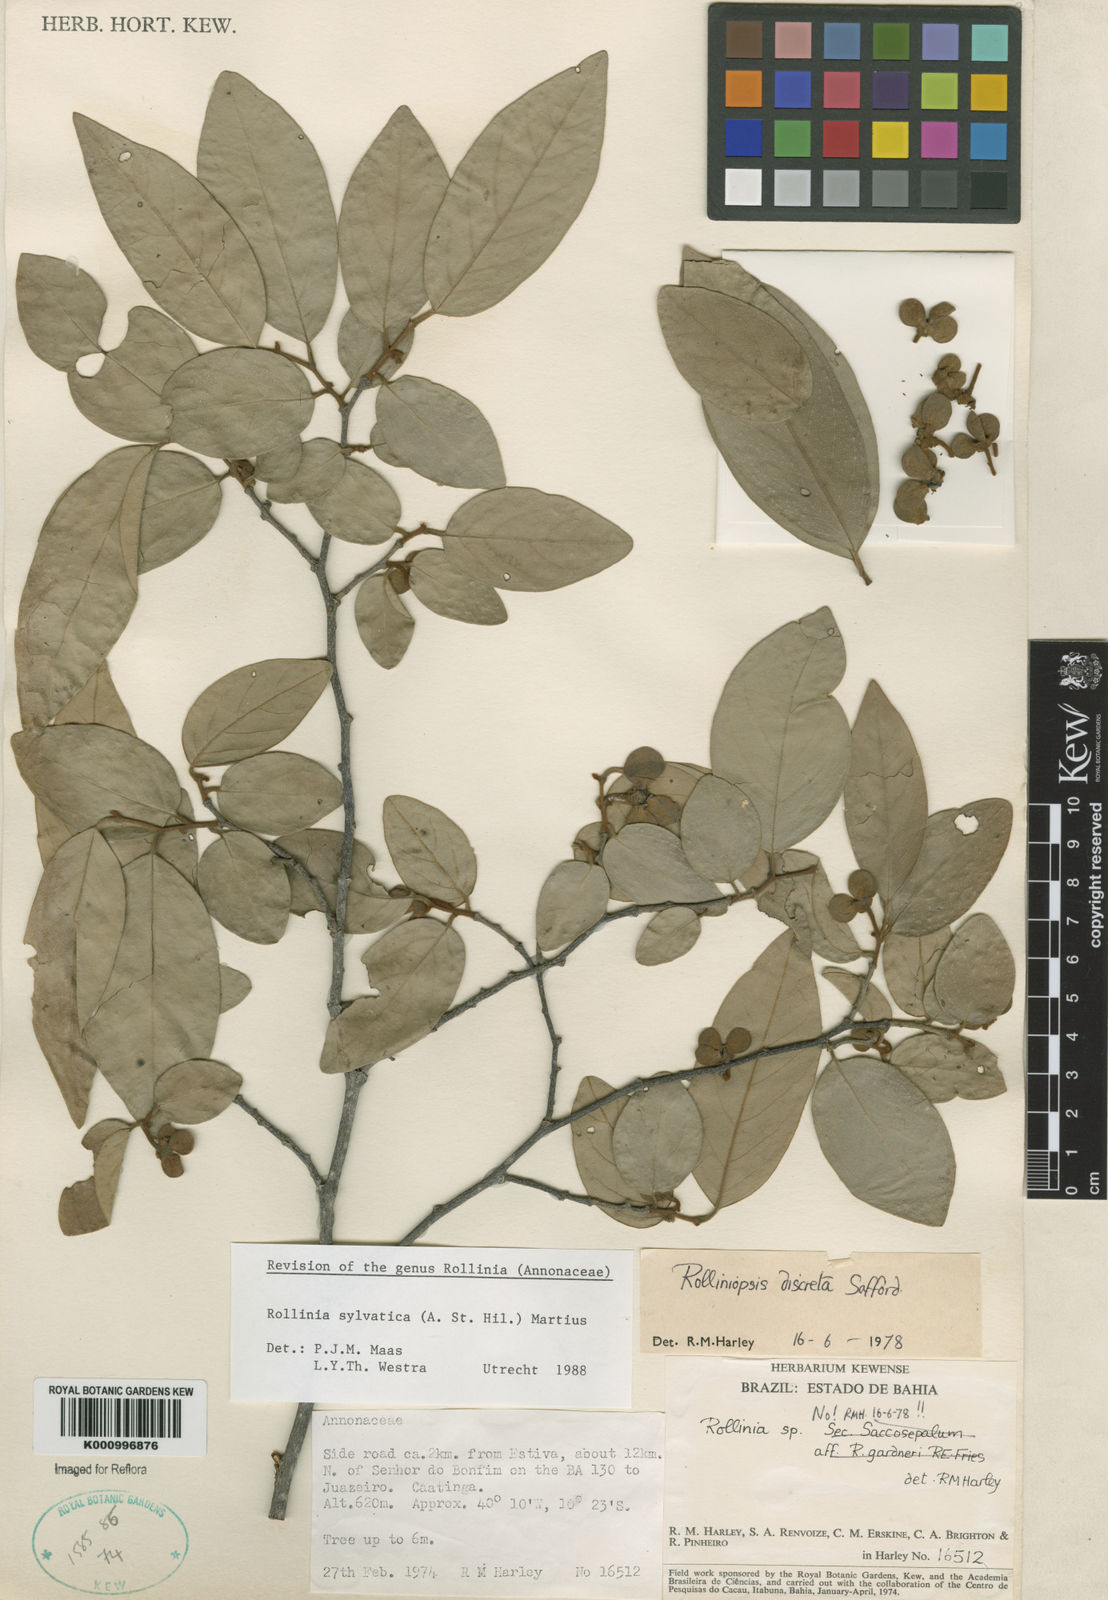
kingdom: Plantae
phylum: Tracheophyta
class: Magnoliopsida
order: Magnoliales
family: Annonaceae
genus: Annona
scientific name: Annona sylvatica
